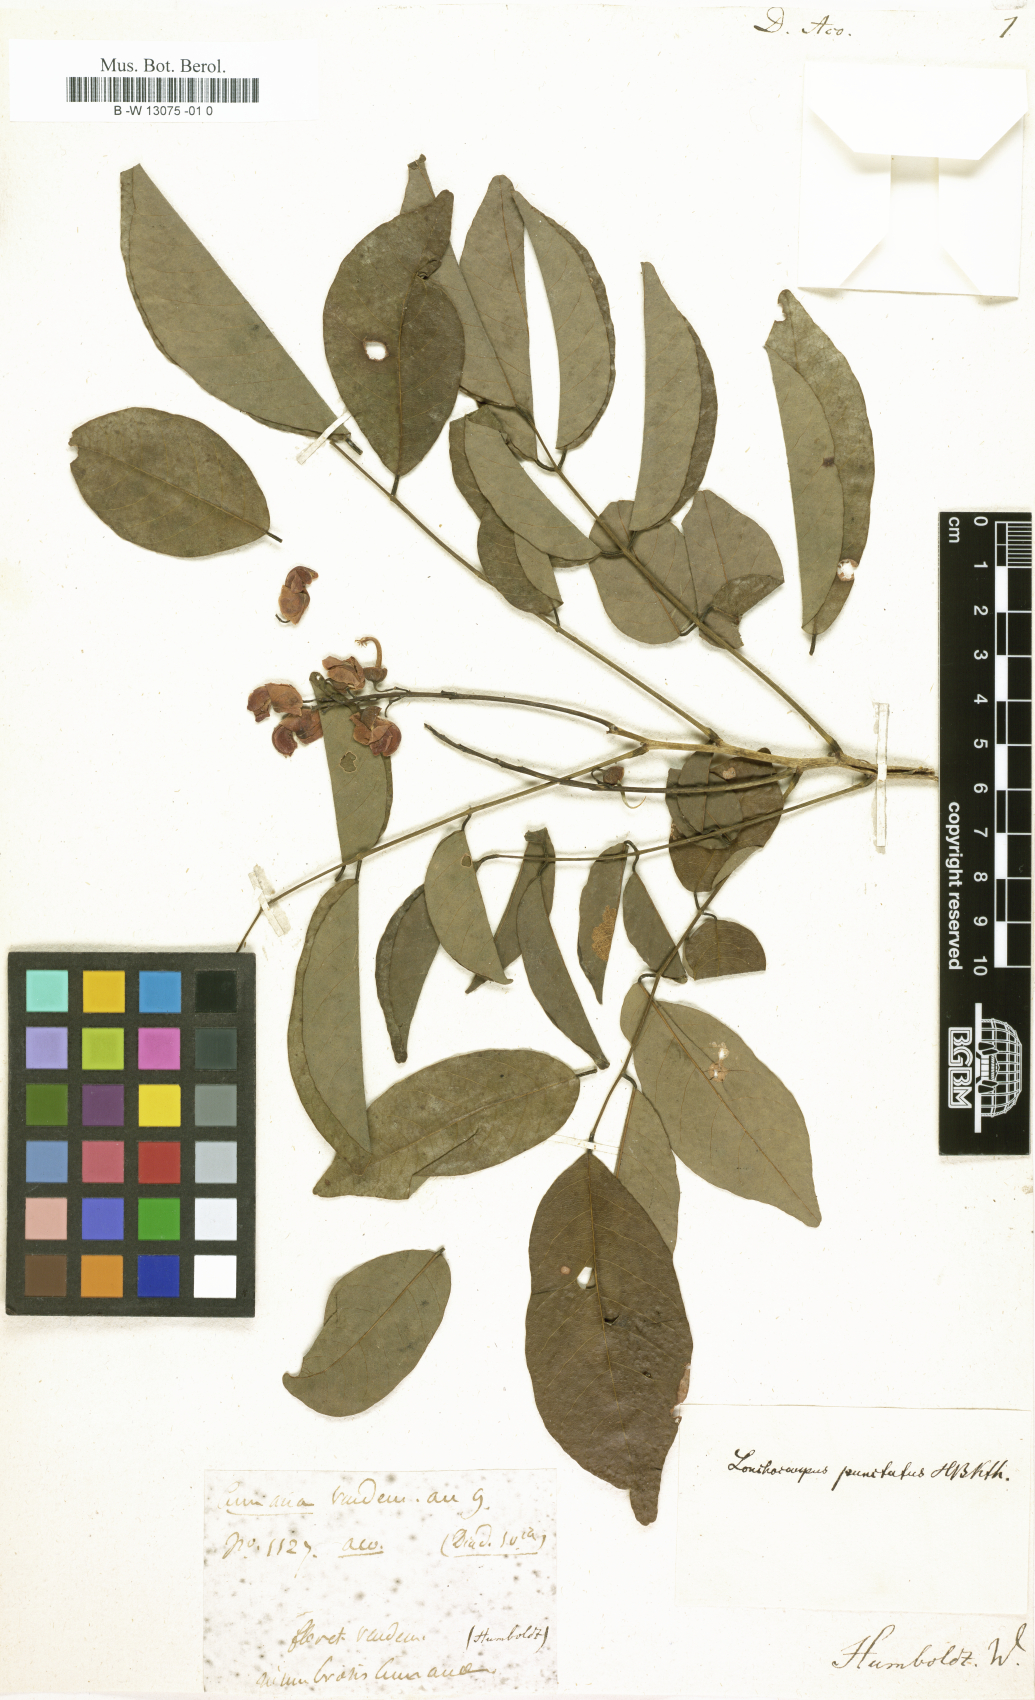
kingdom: Plantae
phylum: Tracheophyta
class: Magnoliopsida
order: Fabales
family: Fabaceae
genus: Dalbergia
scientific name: Dalbergia
